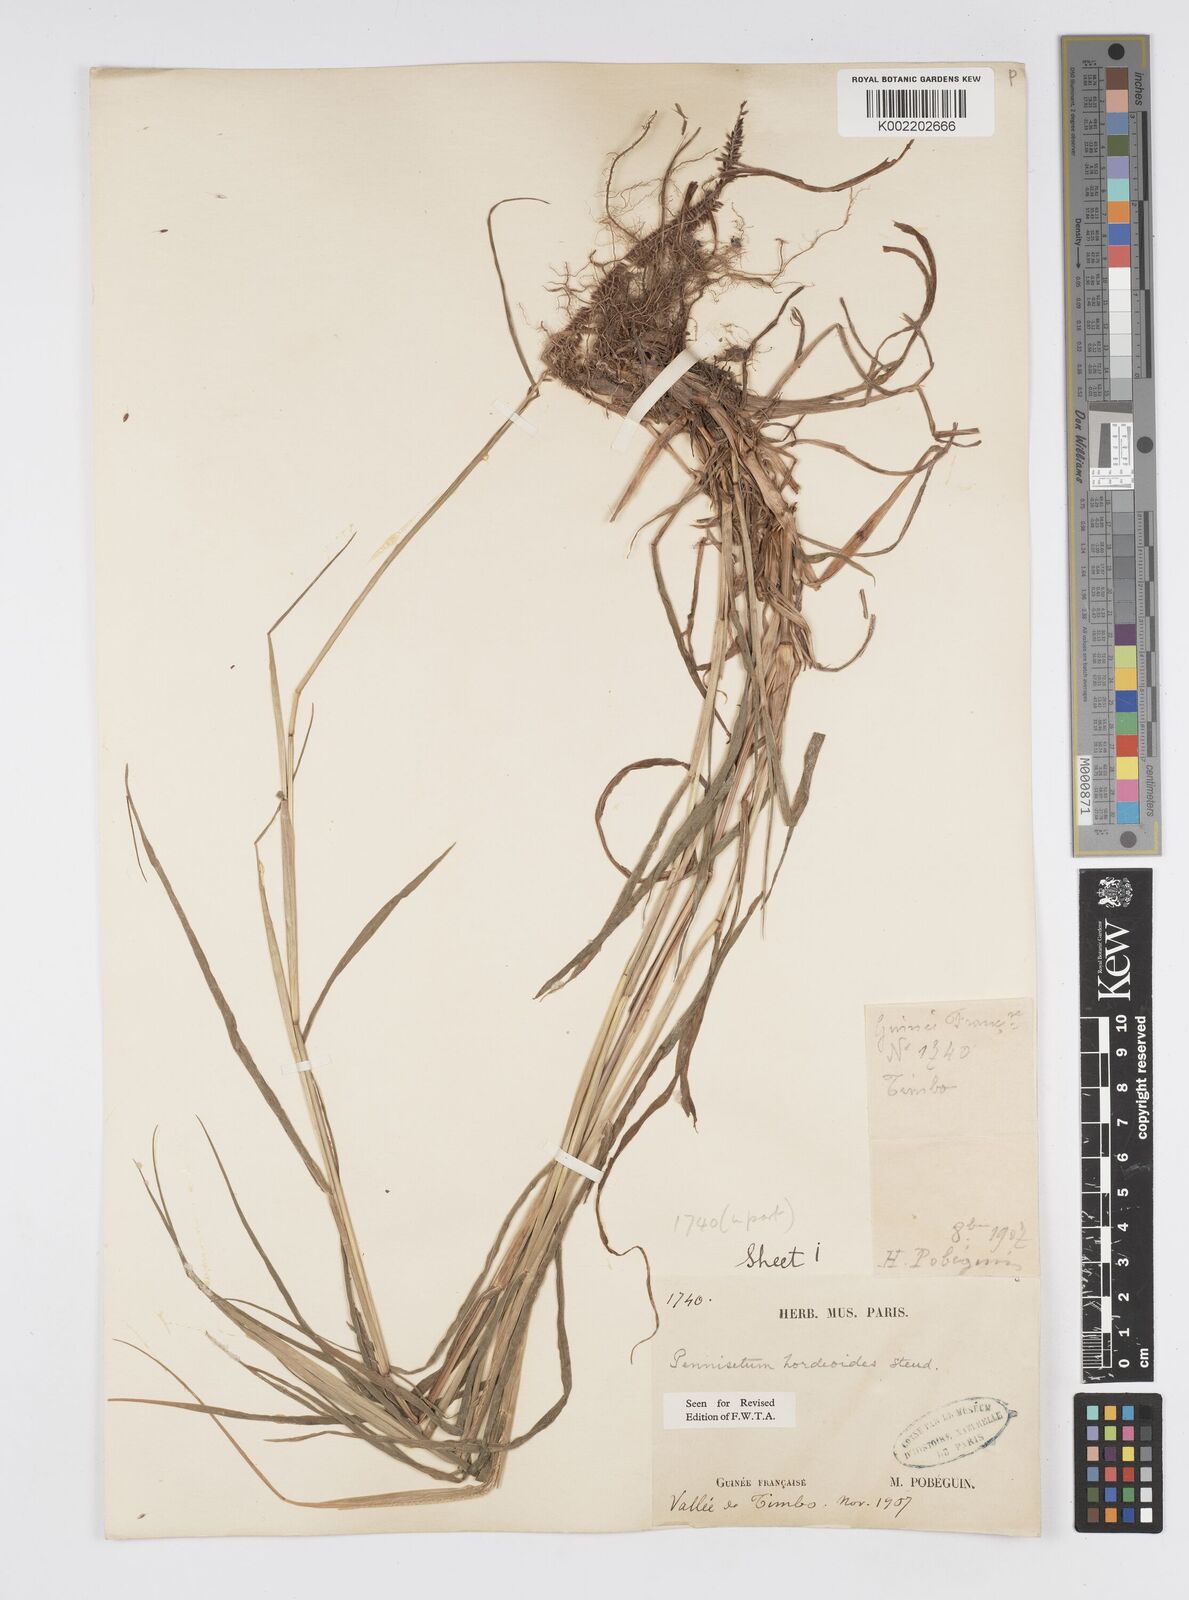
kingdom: Plantae
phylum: Tracheophyta
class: Liliopsida
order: Poales
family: Poaceae
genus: Cenchrus
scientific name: Cenchrus hordeoides
